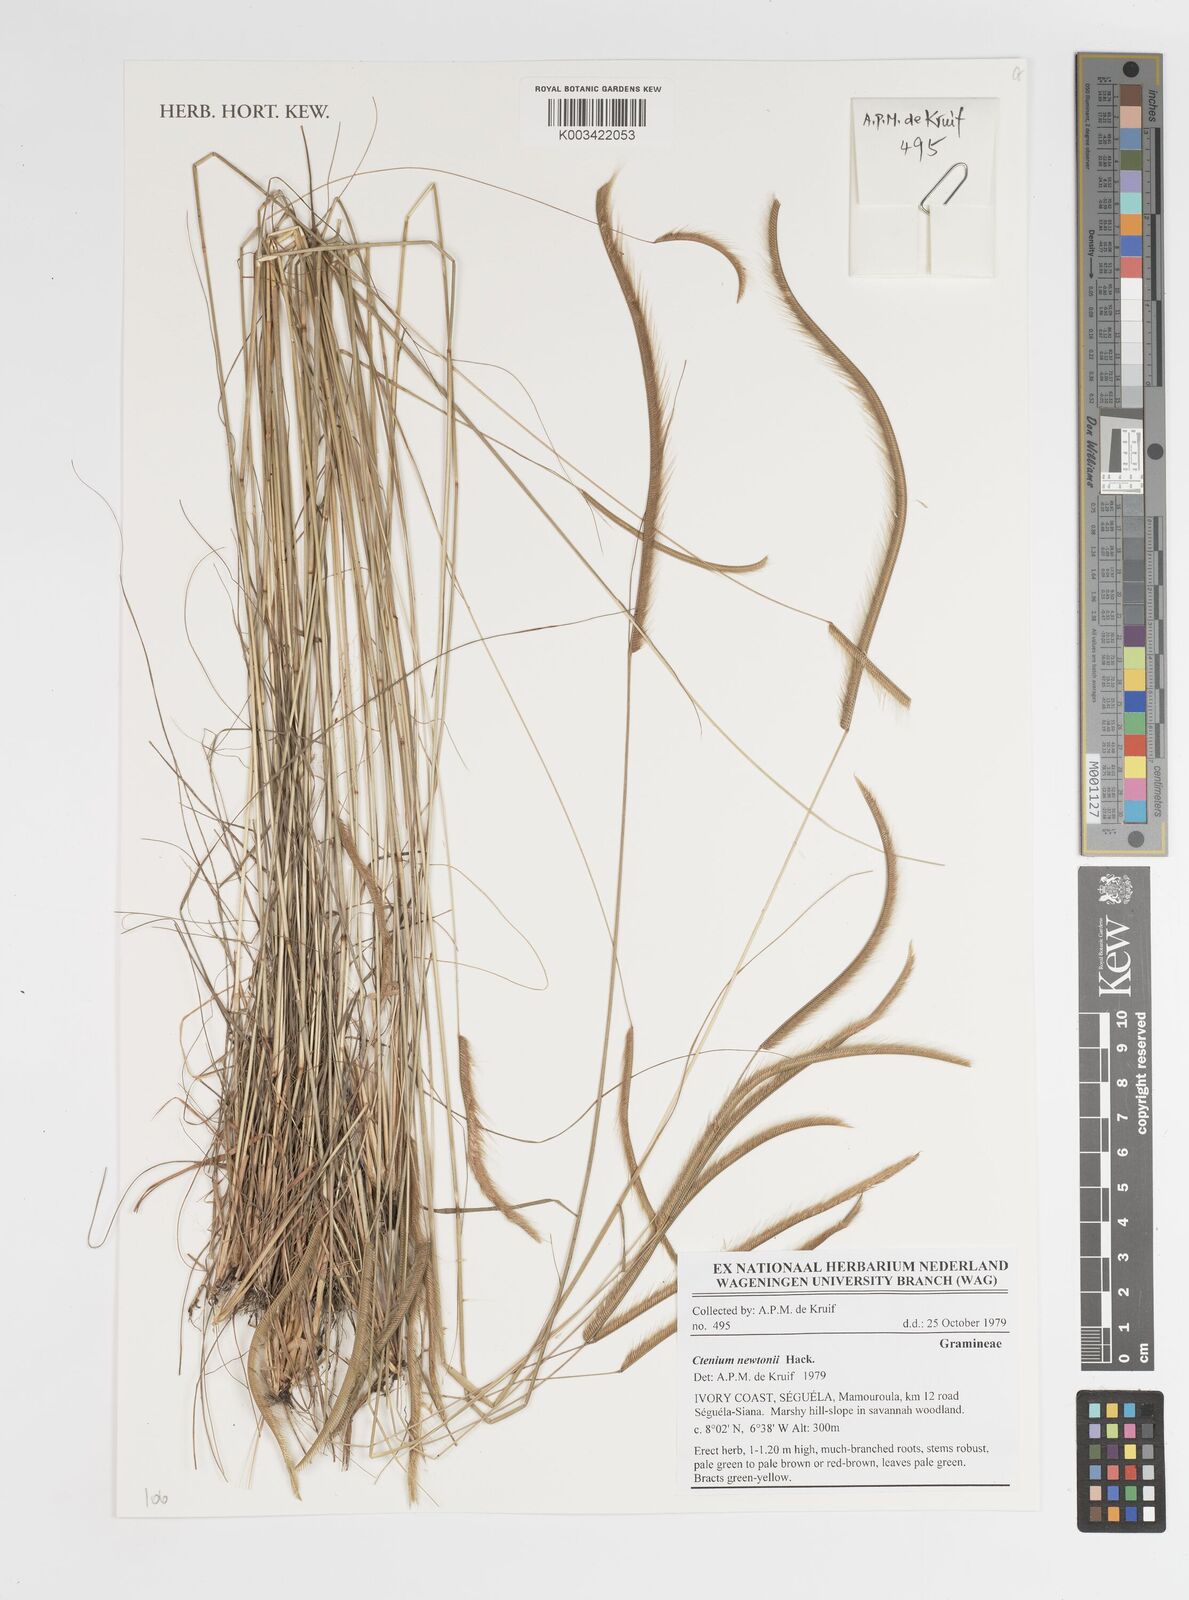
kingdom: Plantae
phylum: Tracheophyta
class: Liliopsida
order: Poales
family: Poaceae
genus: Ctenium
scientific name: Ctenium newtonii
